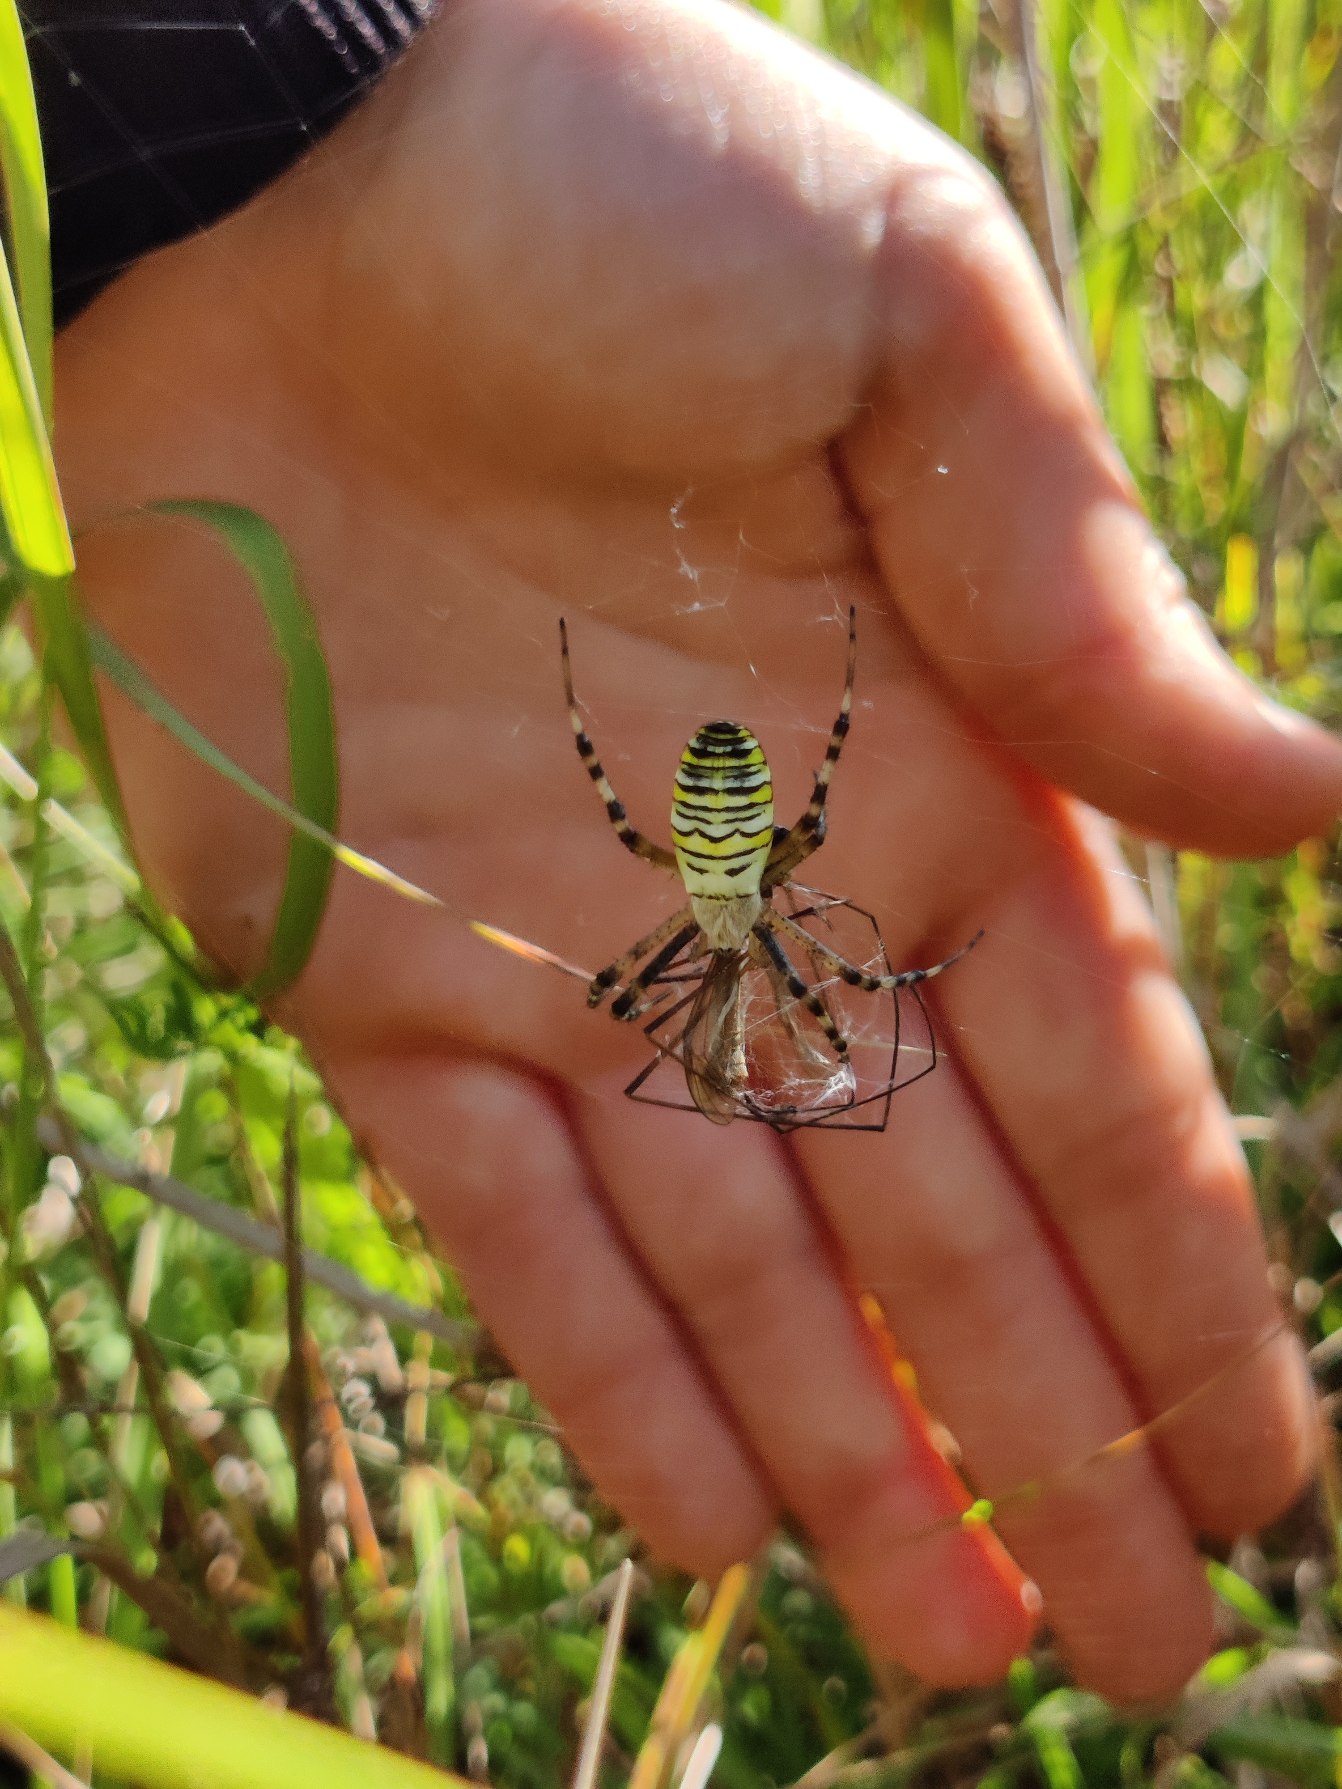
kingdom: Animalia
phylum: Arthropoda
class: Arachnida
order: Araneae
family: Araneidae
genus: Argiope
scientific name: Argiope bruennichi
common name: Hvepseedderkop
